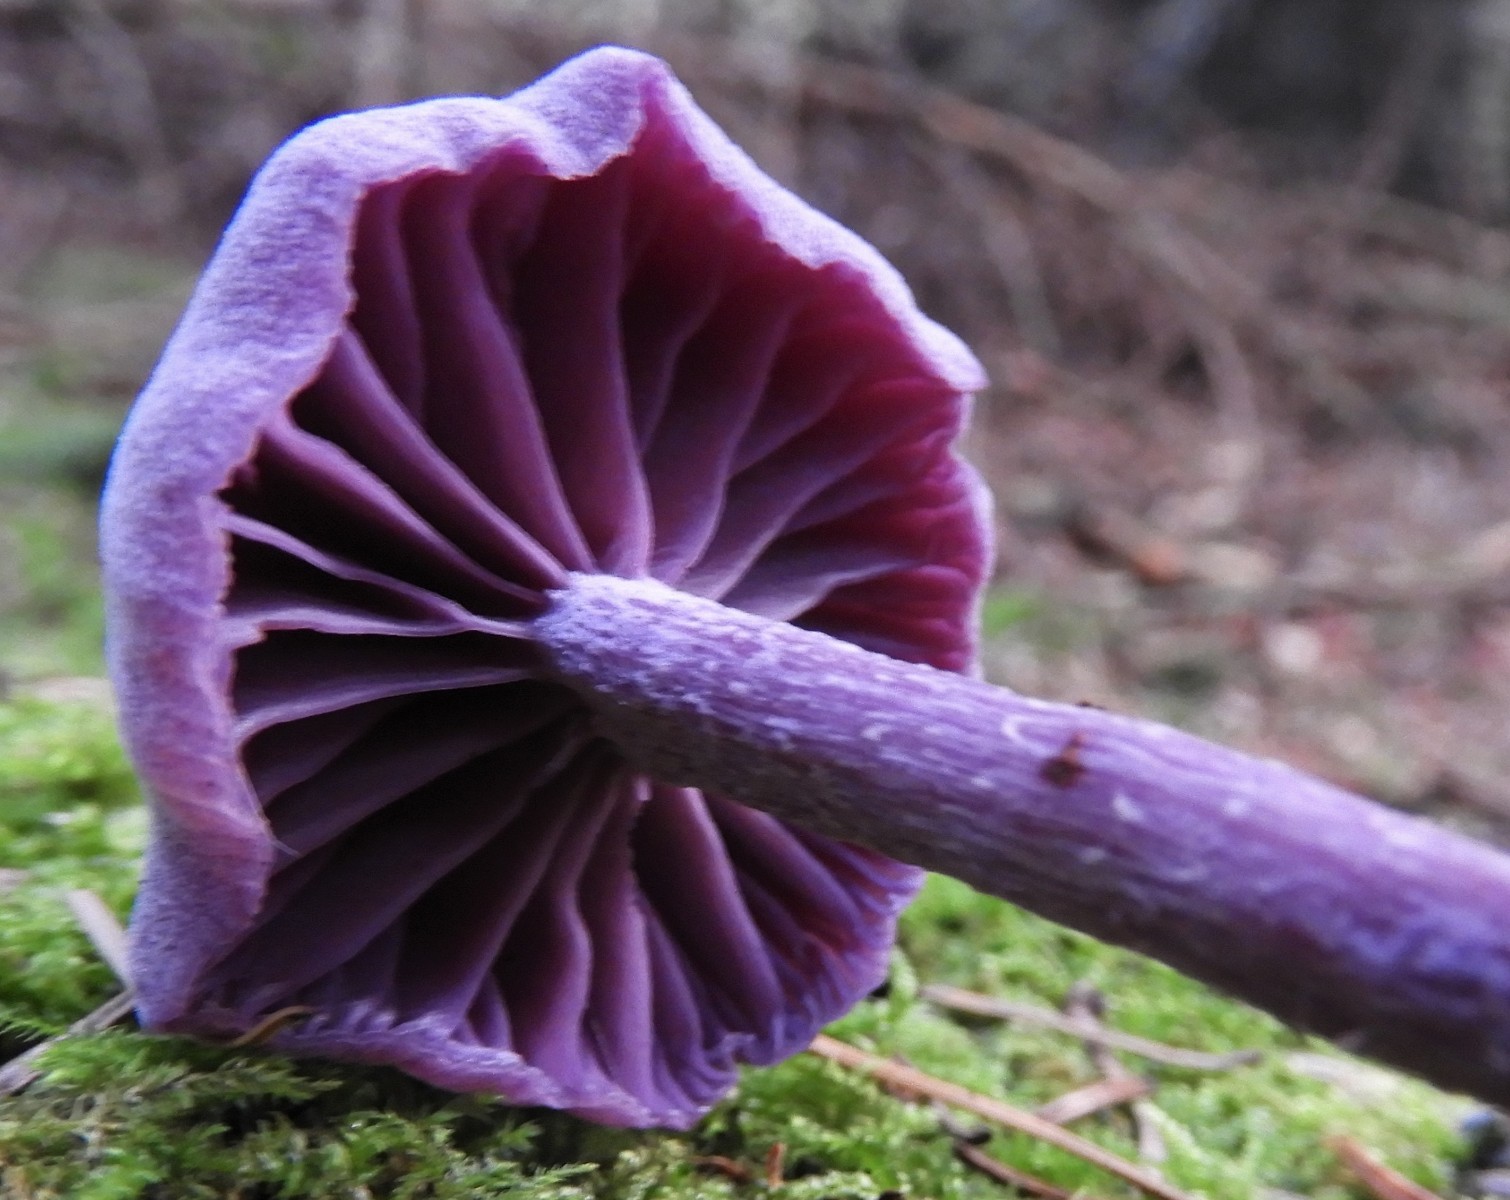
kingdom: Fungi
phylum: Basidiomycota
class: Agaricomycetes
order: Agaricales
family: Hydnangiaceae
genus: Laccaria
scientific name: Laccaria amethystina
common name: violet ametysthat
